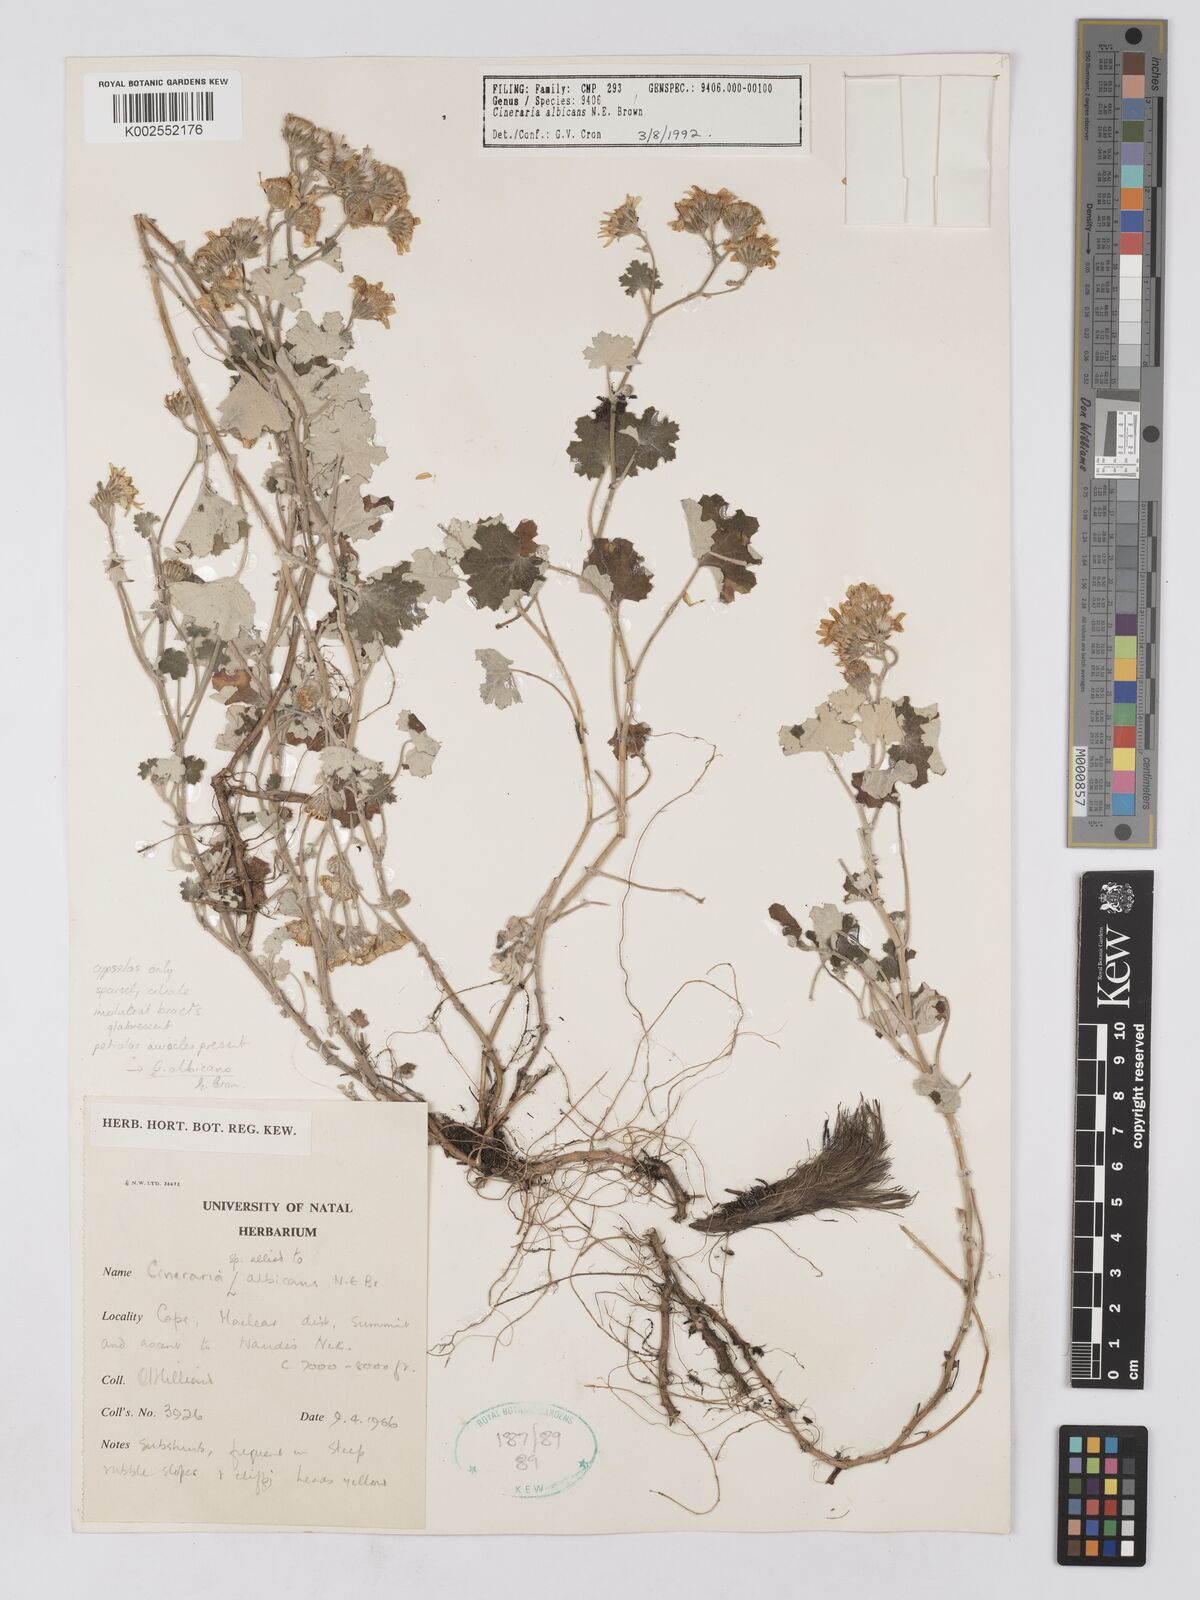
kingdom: Plantae
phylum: Tracheophyta
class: Magnoliopsida
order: Asterales
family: Asteraceae
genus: Cineraria
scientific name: Cineraria albicans
